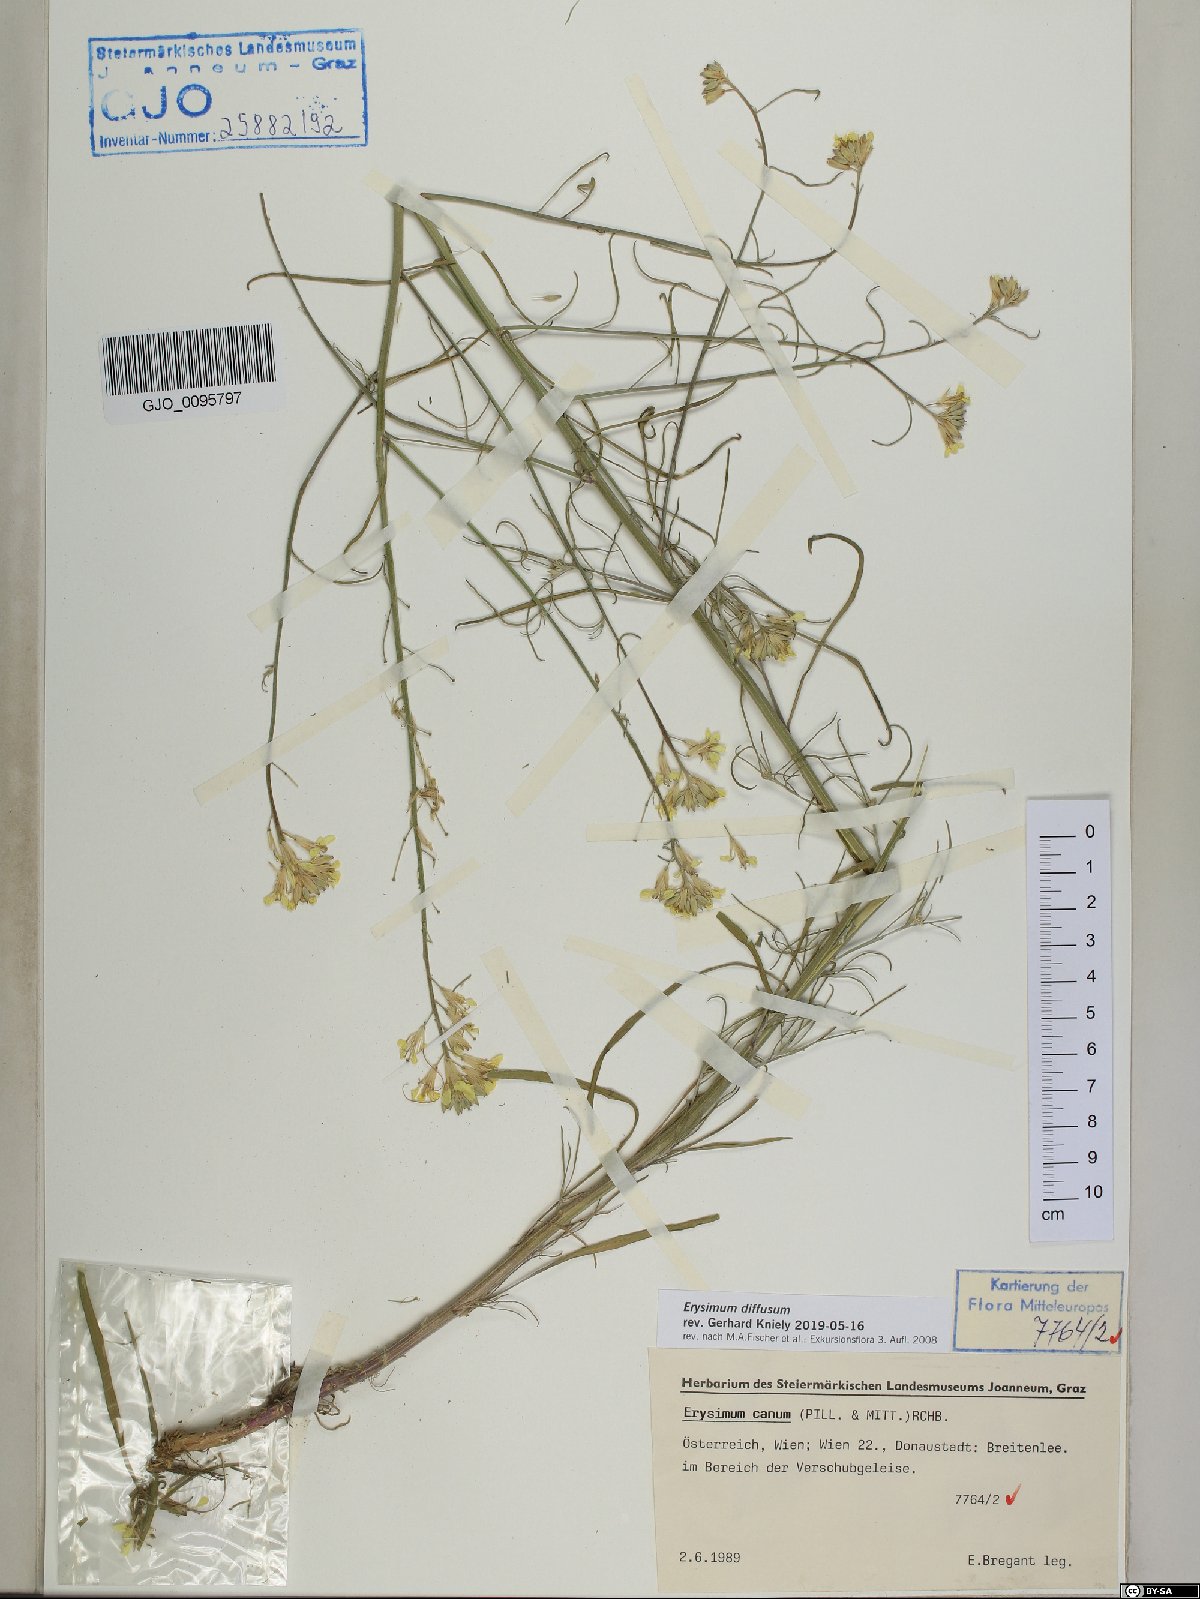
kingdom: Plantae
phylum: Tracheophyta
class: Magnoliopsida
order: Brassicales
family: Brassicaceae
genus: Erysimum
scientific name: Erysimum diffusum
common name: Diffuse wallflower
